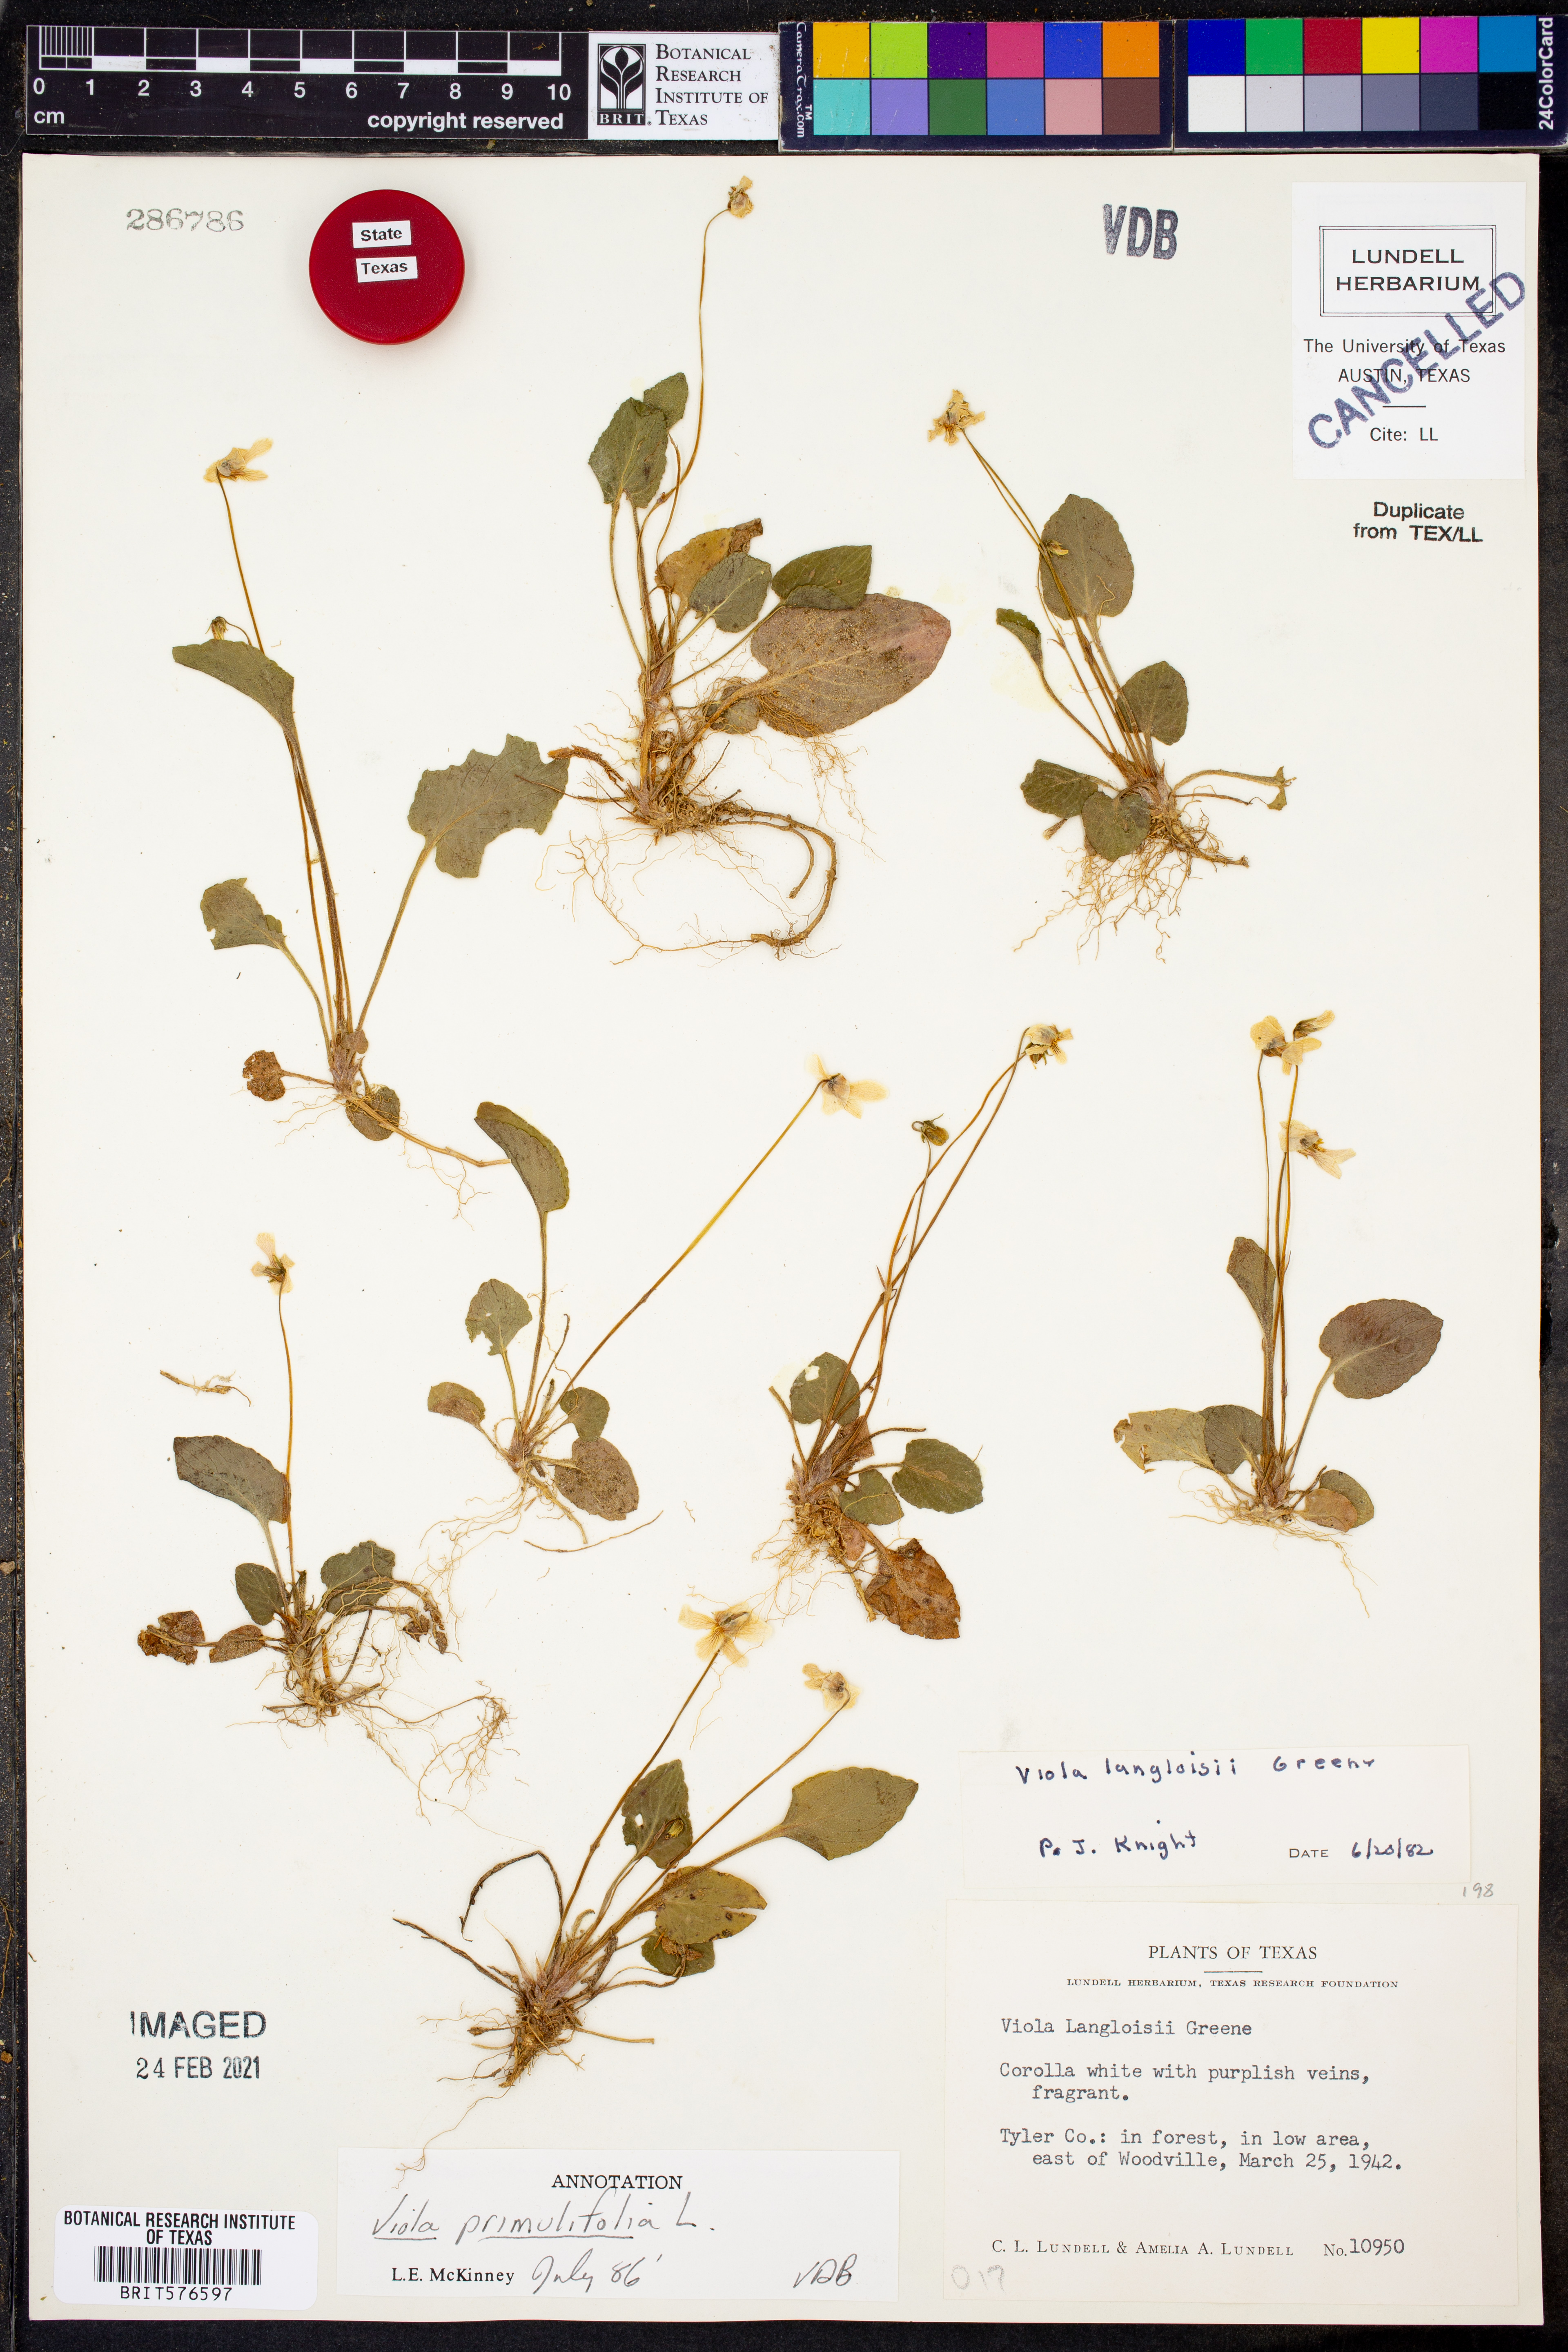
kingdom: Plantae
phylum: Tracheophyta
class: Magnoliopsida
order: Malpighiales
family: Violaceae
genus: Viola
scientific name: Viola primulifolia
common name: Primrose-leaf violet
